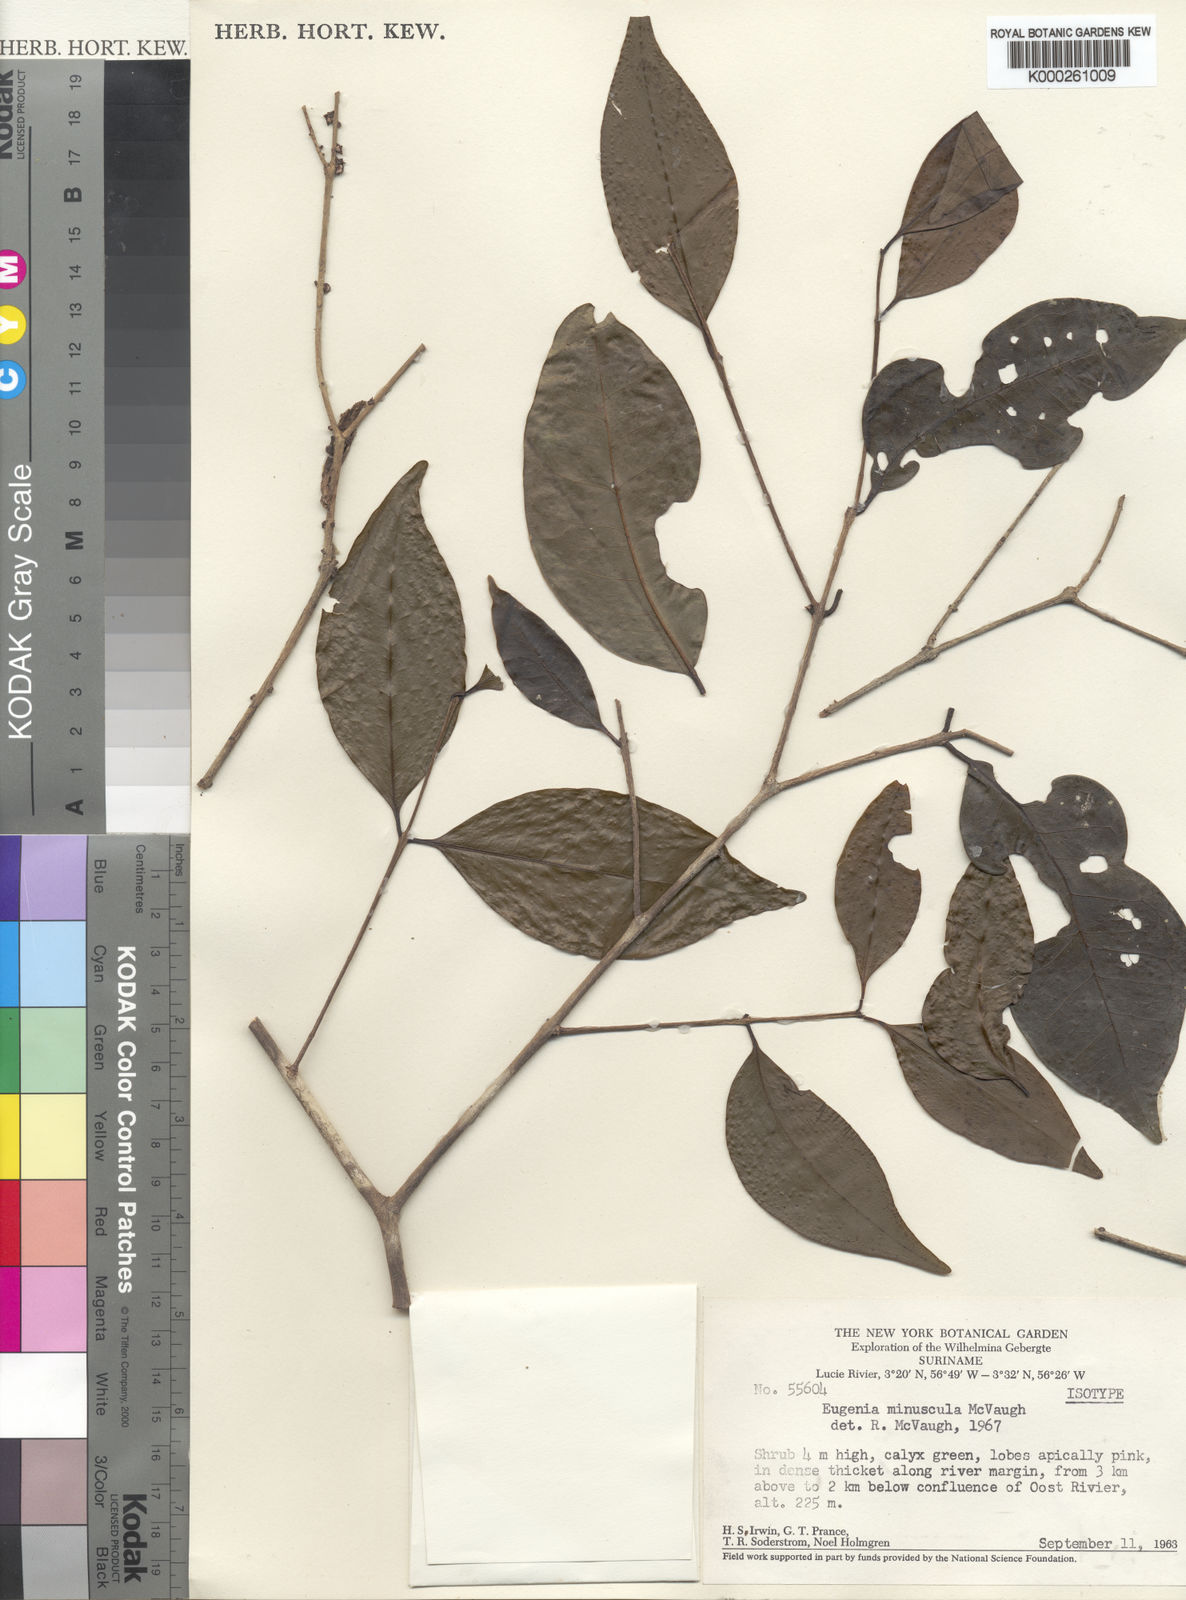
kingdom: Plantae
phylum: Tracheophyta
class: Magnoliopsida
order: Myrtales
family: Myrtaceae
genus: Eugenia
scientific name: Eugenia minuscula
